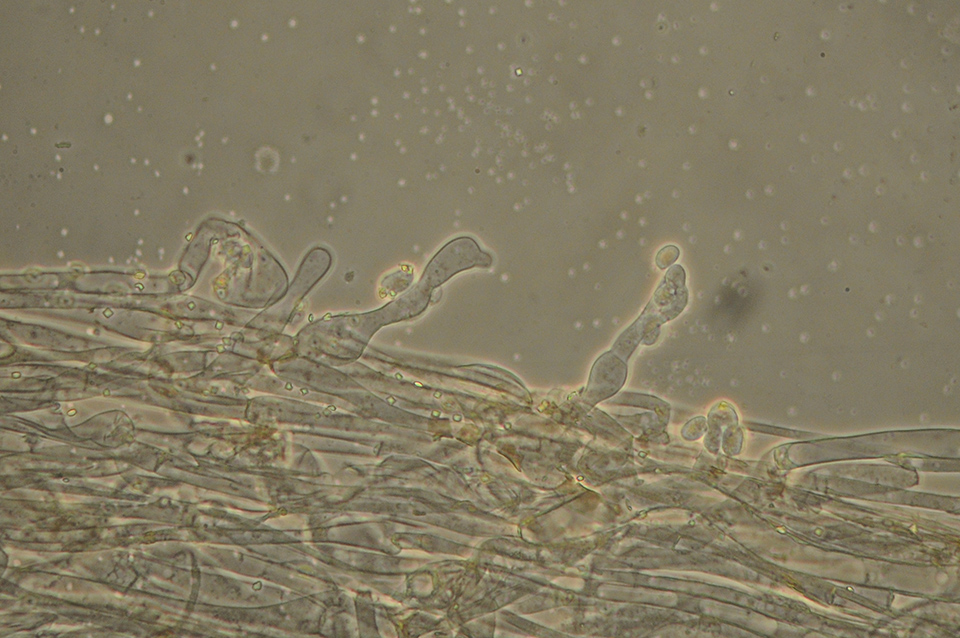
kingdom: Fungi
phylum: Basidiomycota
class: Agaricomycetes
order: Agaricales
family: Hygrophoraceae
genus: Arrhenia
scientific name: Arrhenia rustica
